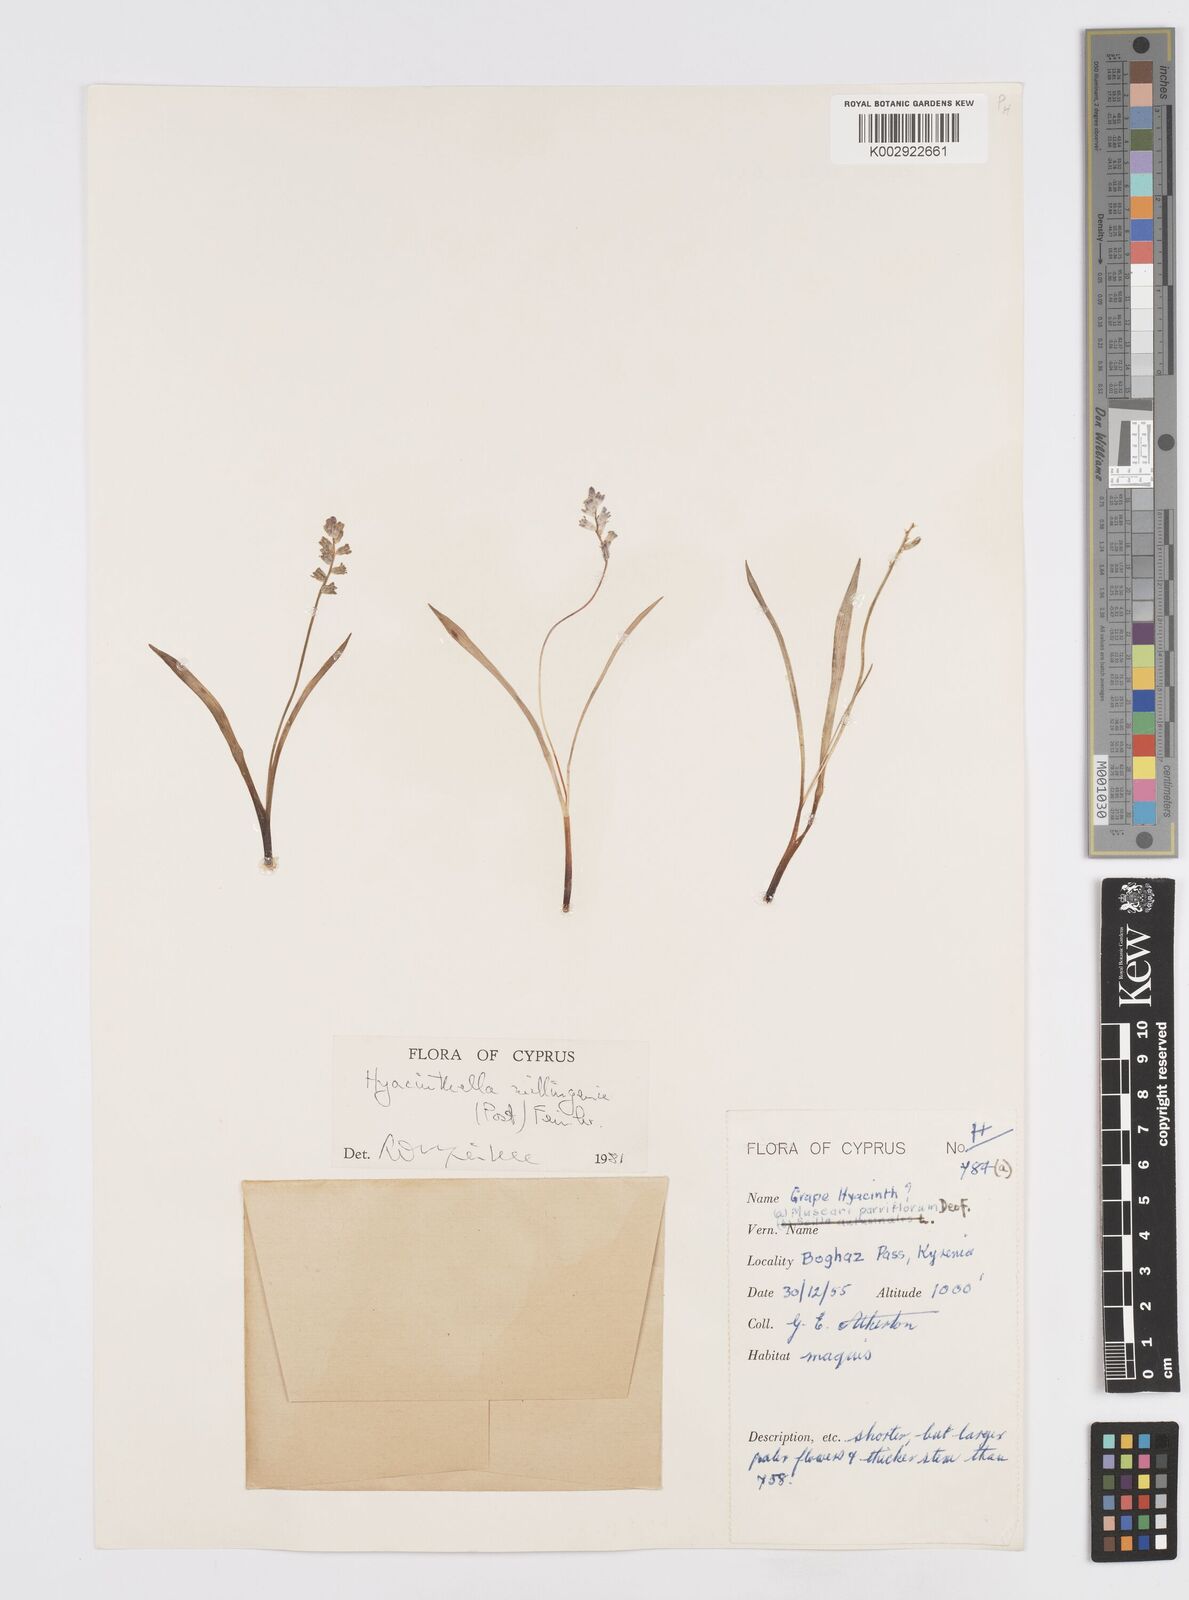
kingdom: Plantae
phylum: Tracheophyta
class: Liliopsida
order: Asparagales
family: Asparagaceae
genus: Hyacinthella
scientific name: Hyacinthella millingenii
